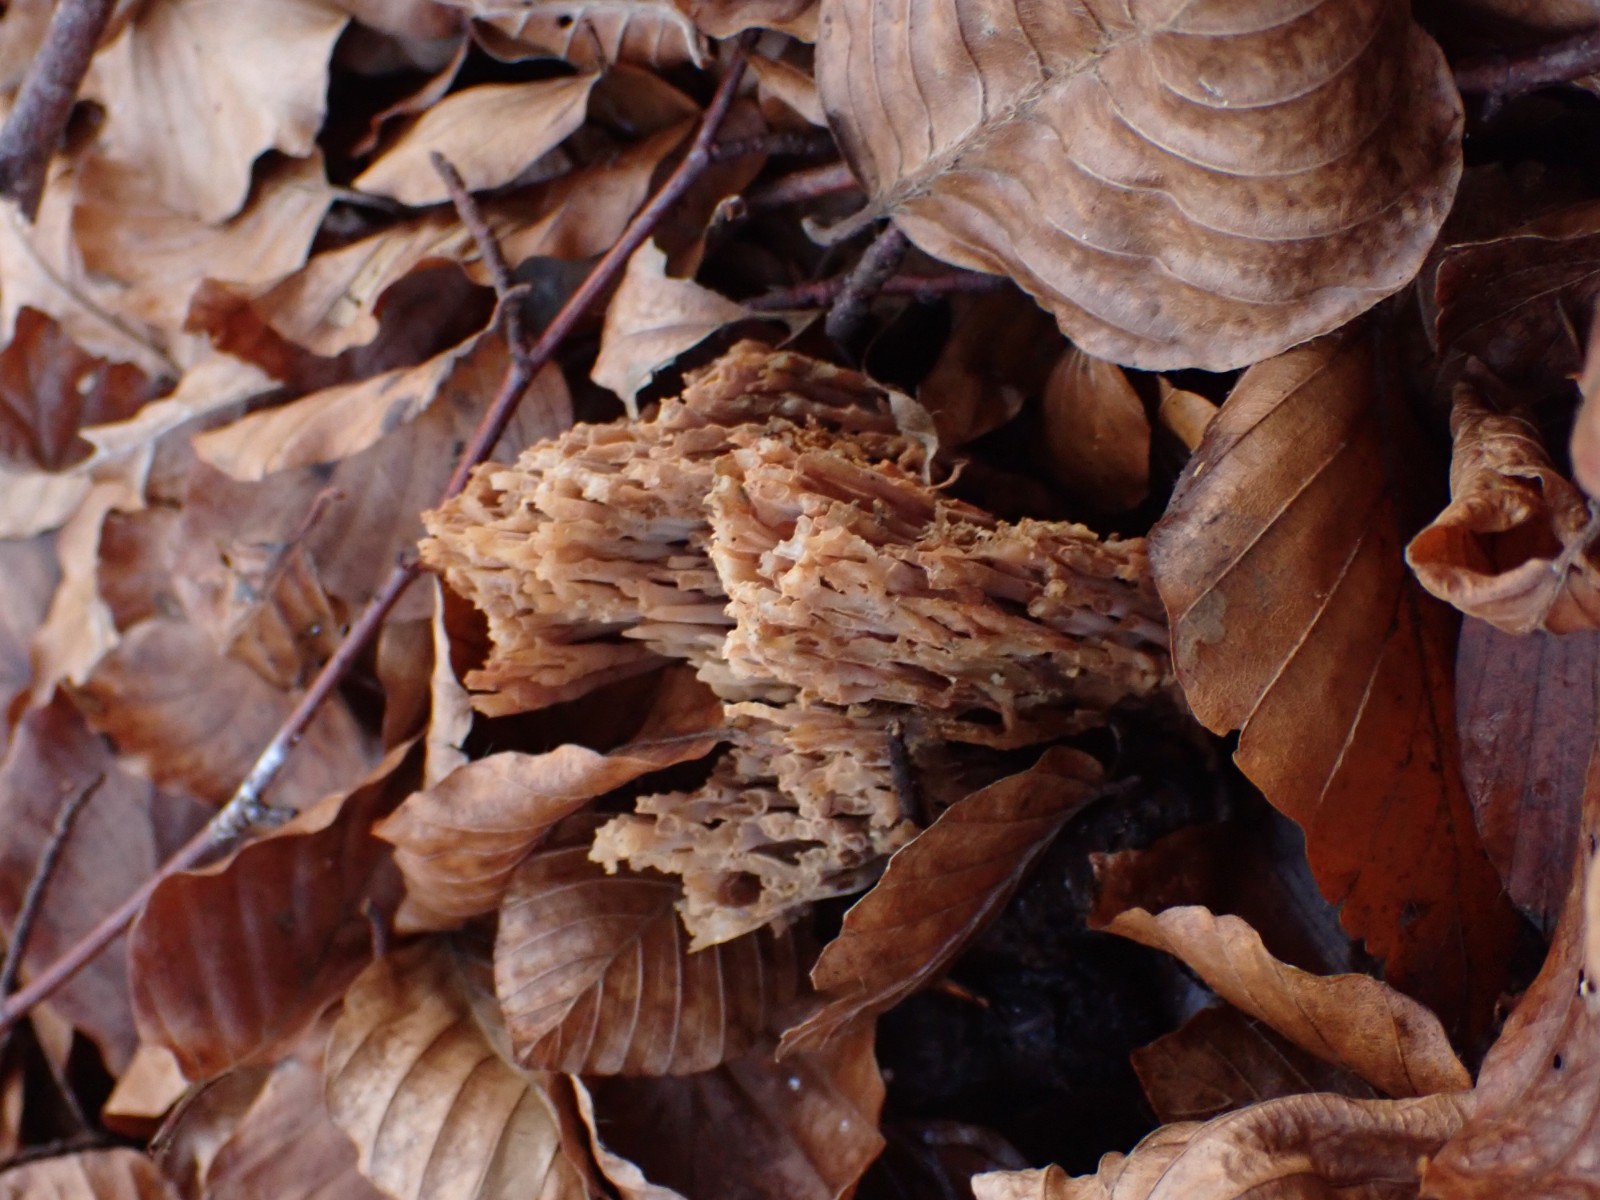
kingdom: Fungi
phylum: Basidiomycota
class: Agaricomycetes
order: Gomphales
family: Gomphaceae
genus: Ramaria
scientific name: Ramaria stricta
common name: rank koralsvamp
